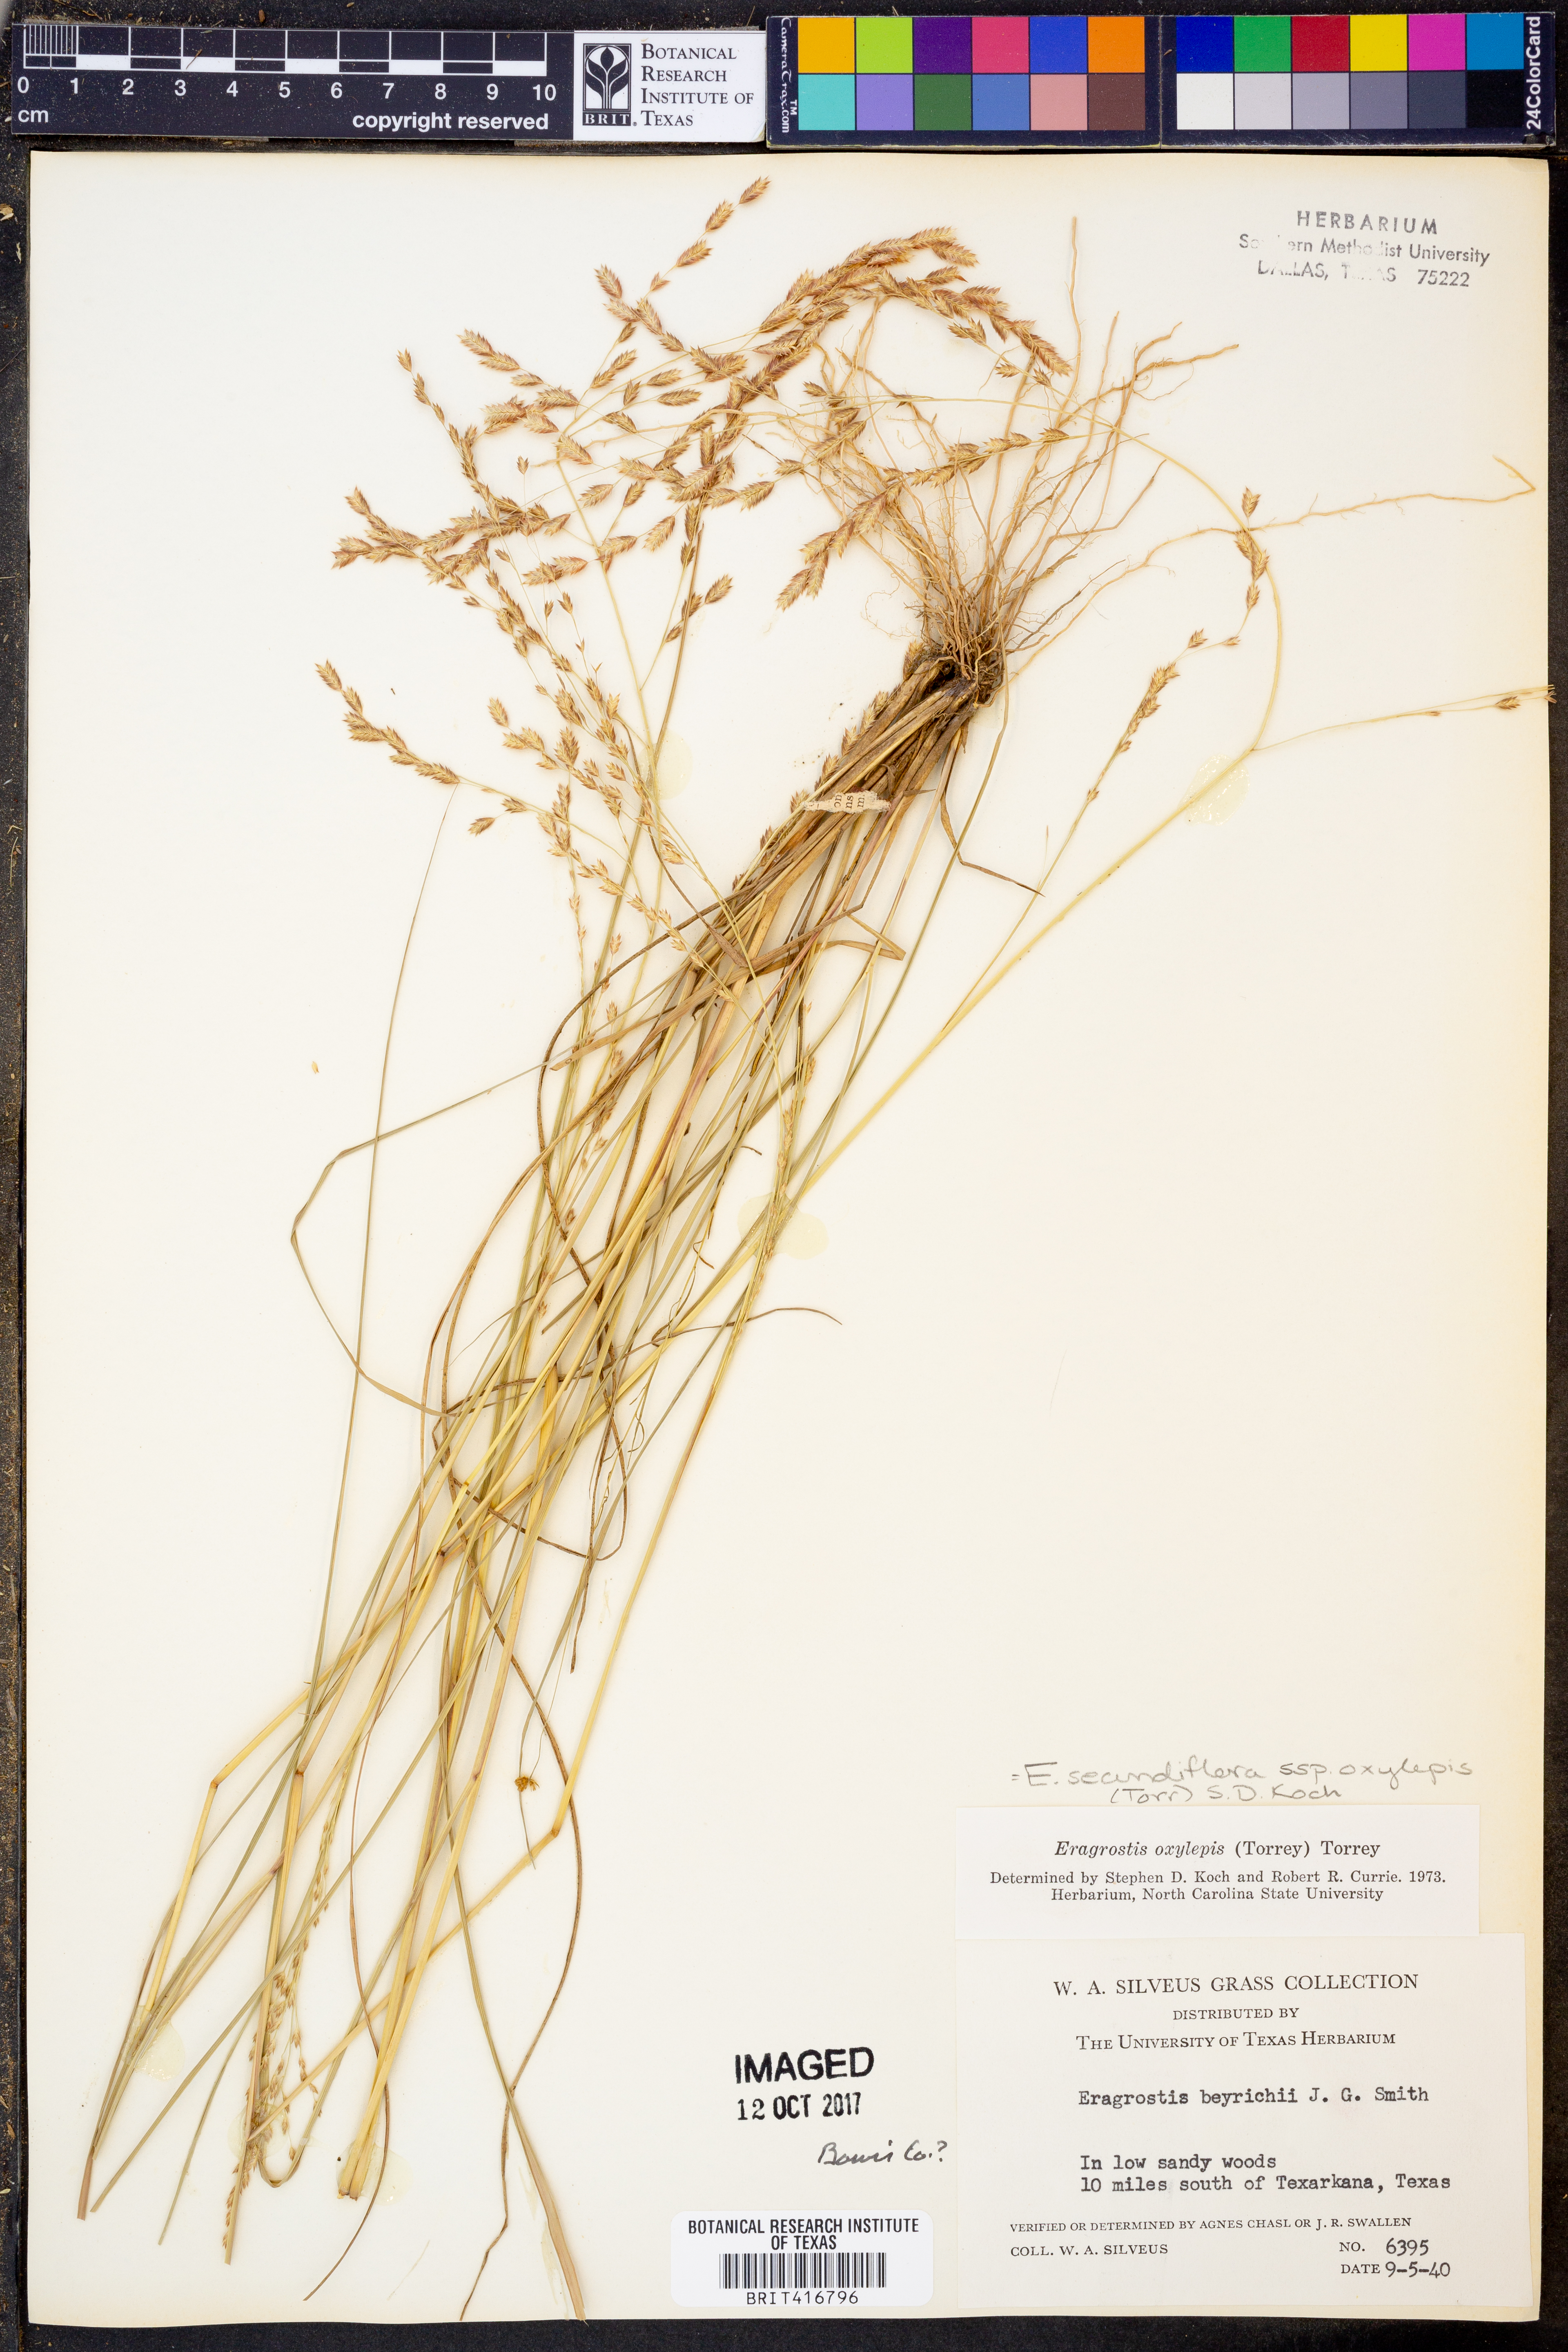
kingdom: Plantae
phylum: Tracheophyta
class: Liliopsida
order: Poales
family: Poaceae
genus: Eragrostis
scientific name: Eragrostis secundiflora
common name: Red love grass
